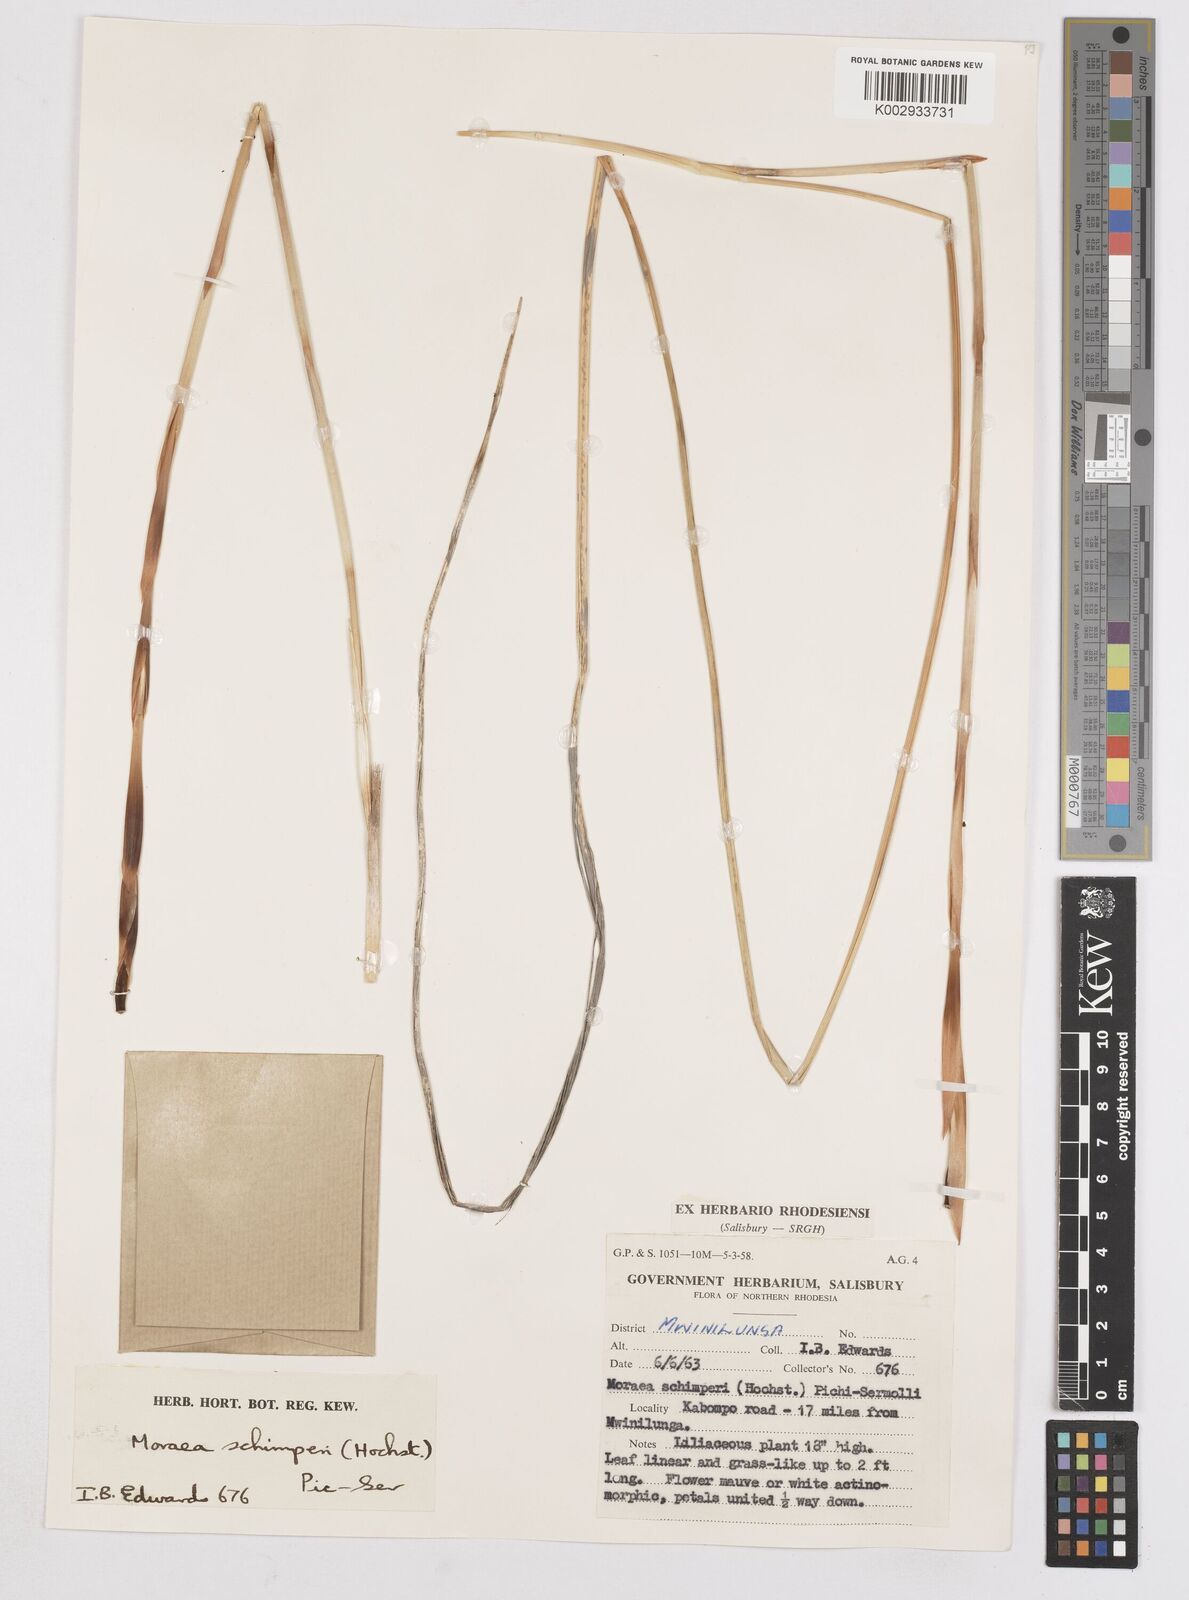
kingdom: Plantae
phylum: Tracheophyta
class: Liliopsida
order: Asparagales
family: Iridaceae
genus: Moraea
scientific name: Moraea schimperi
